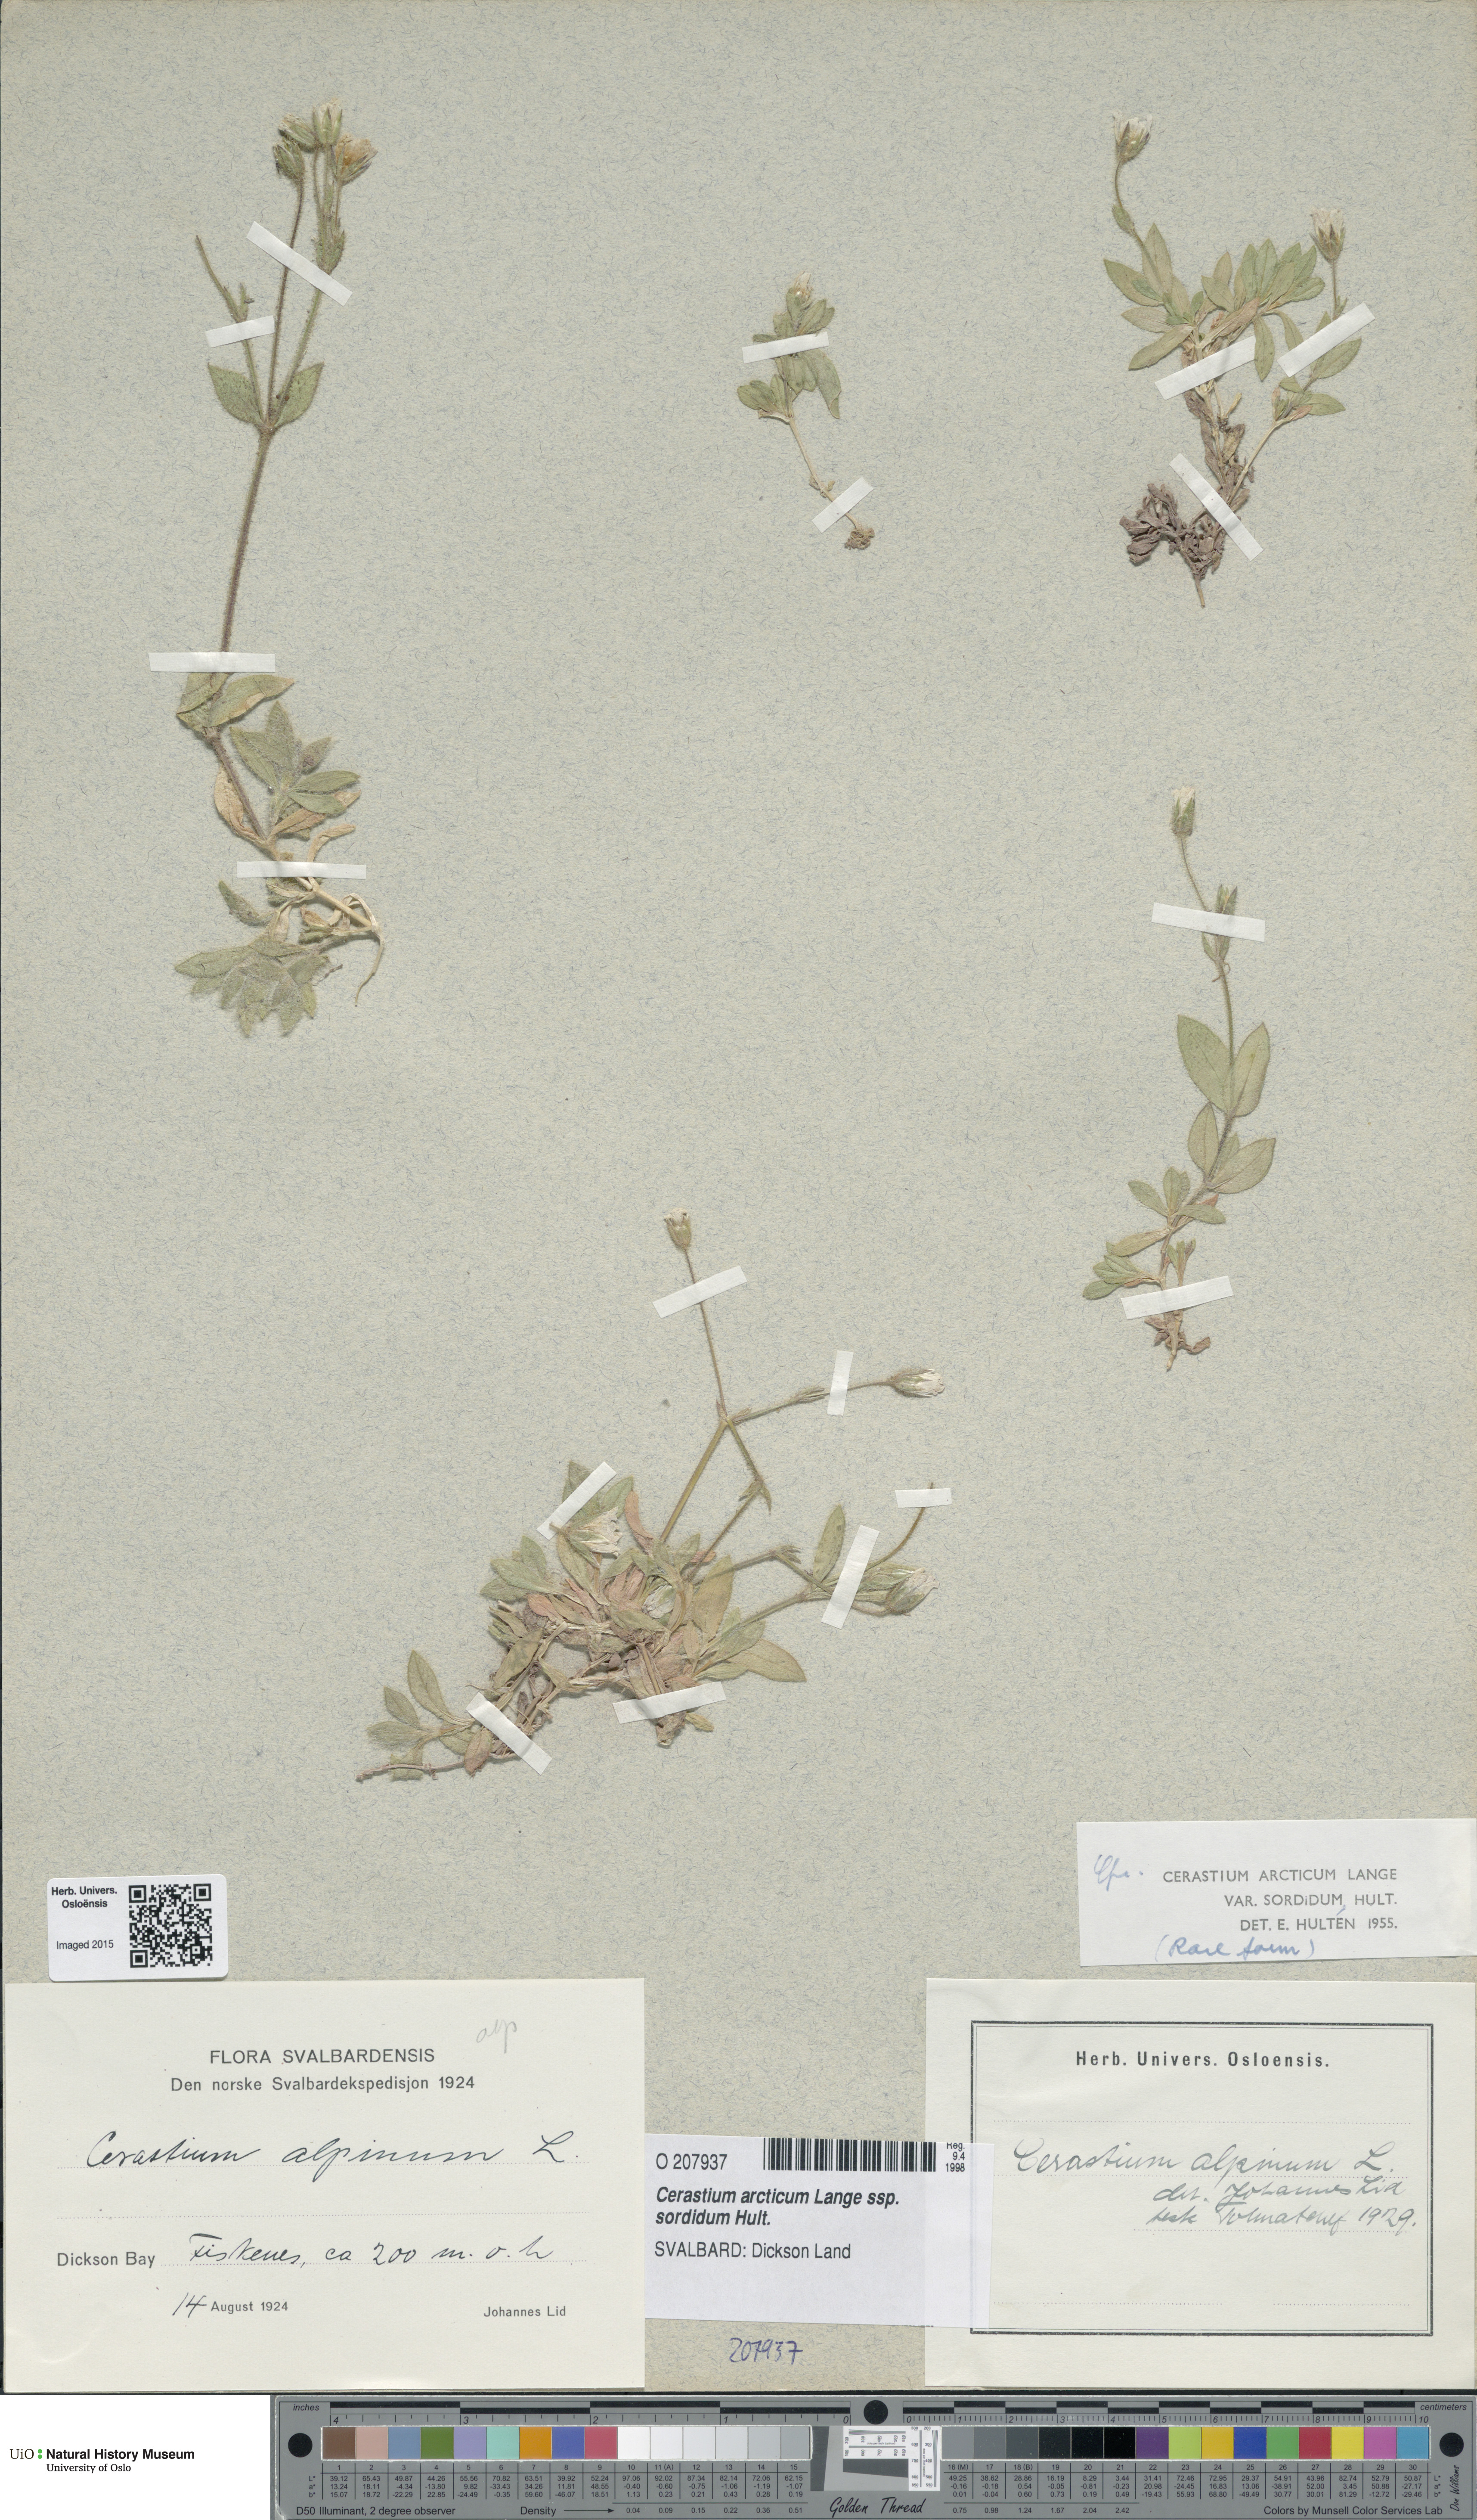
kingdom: Plantae
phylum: Tracheophyta
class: Magnoliopsida
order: Caryophyllales
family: Caryophyllaceae
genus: Cerastium
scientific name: Cerastium sordidum
